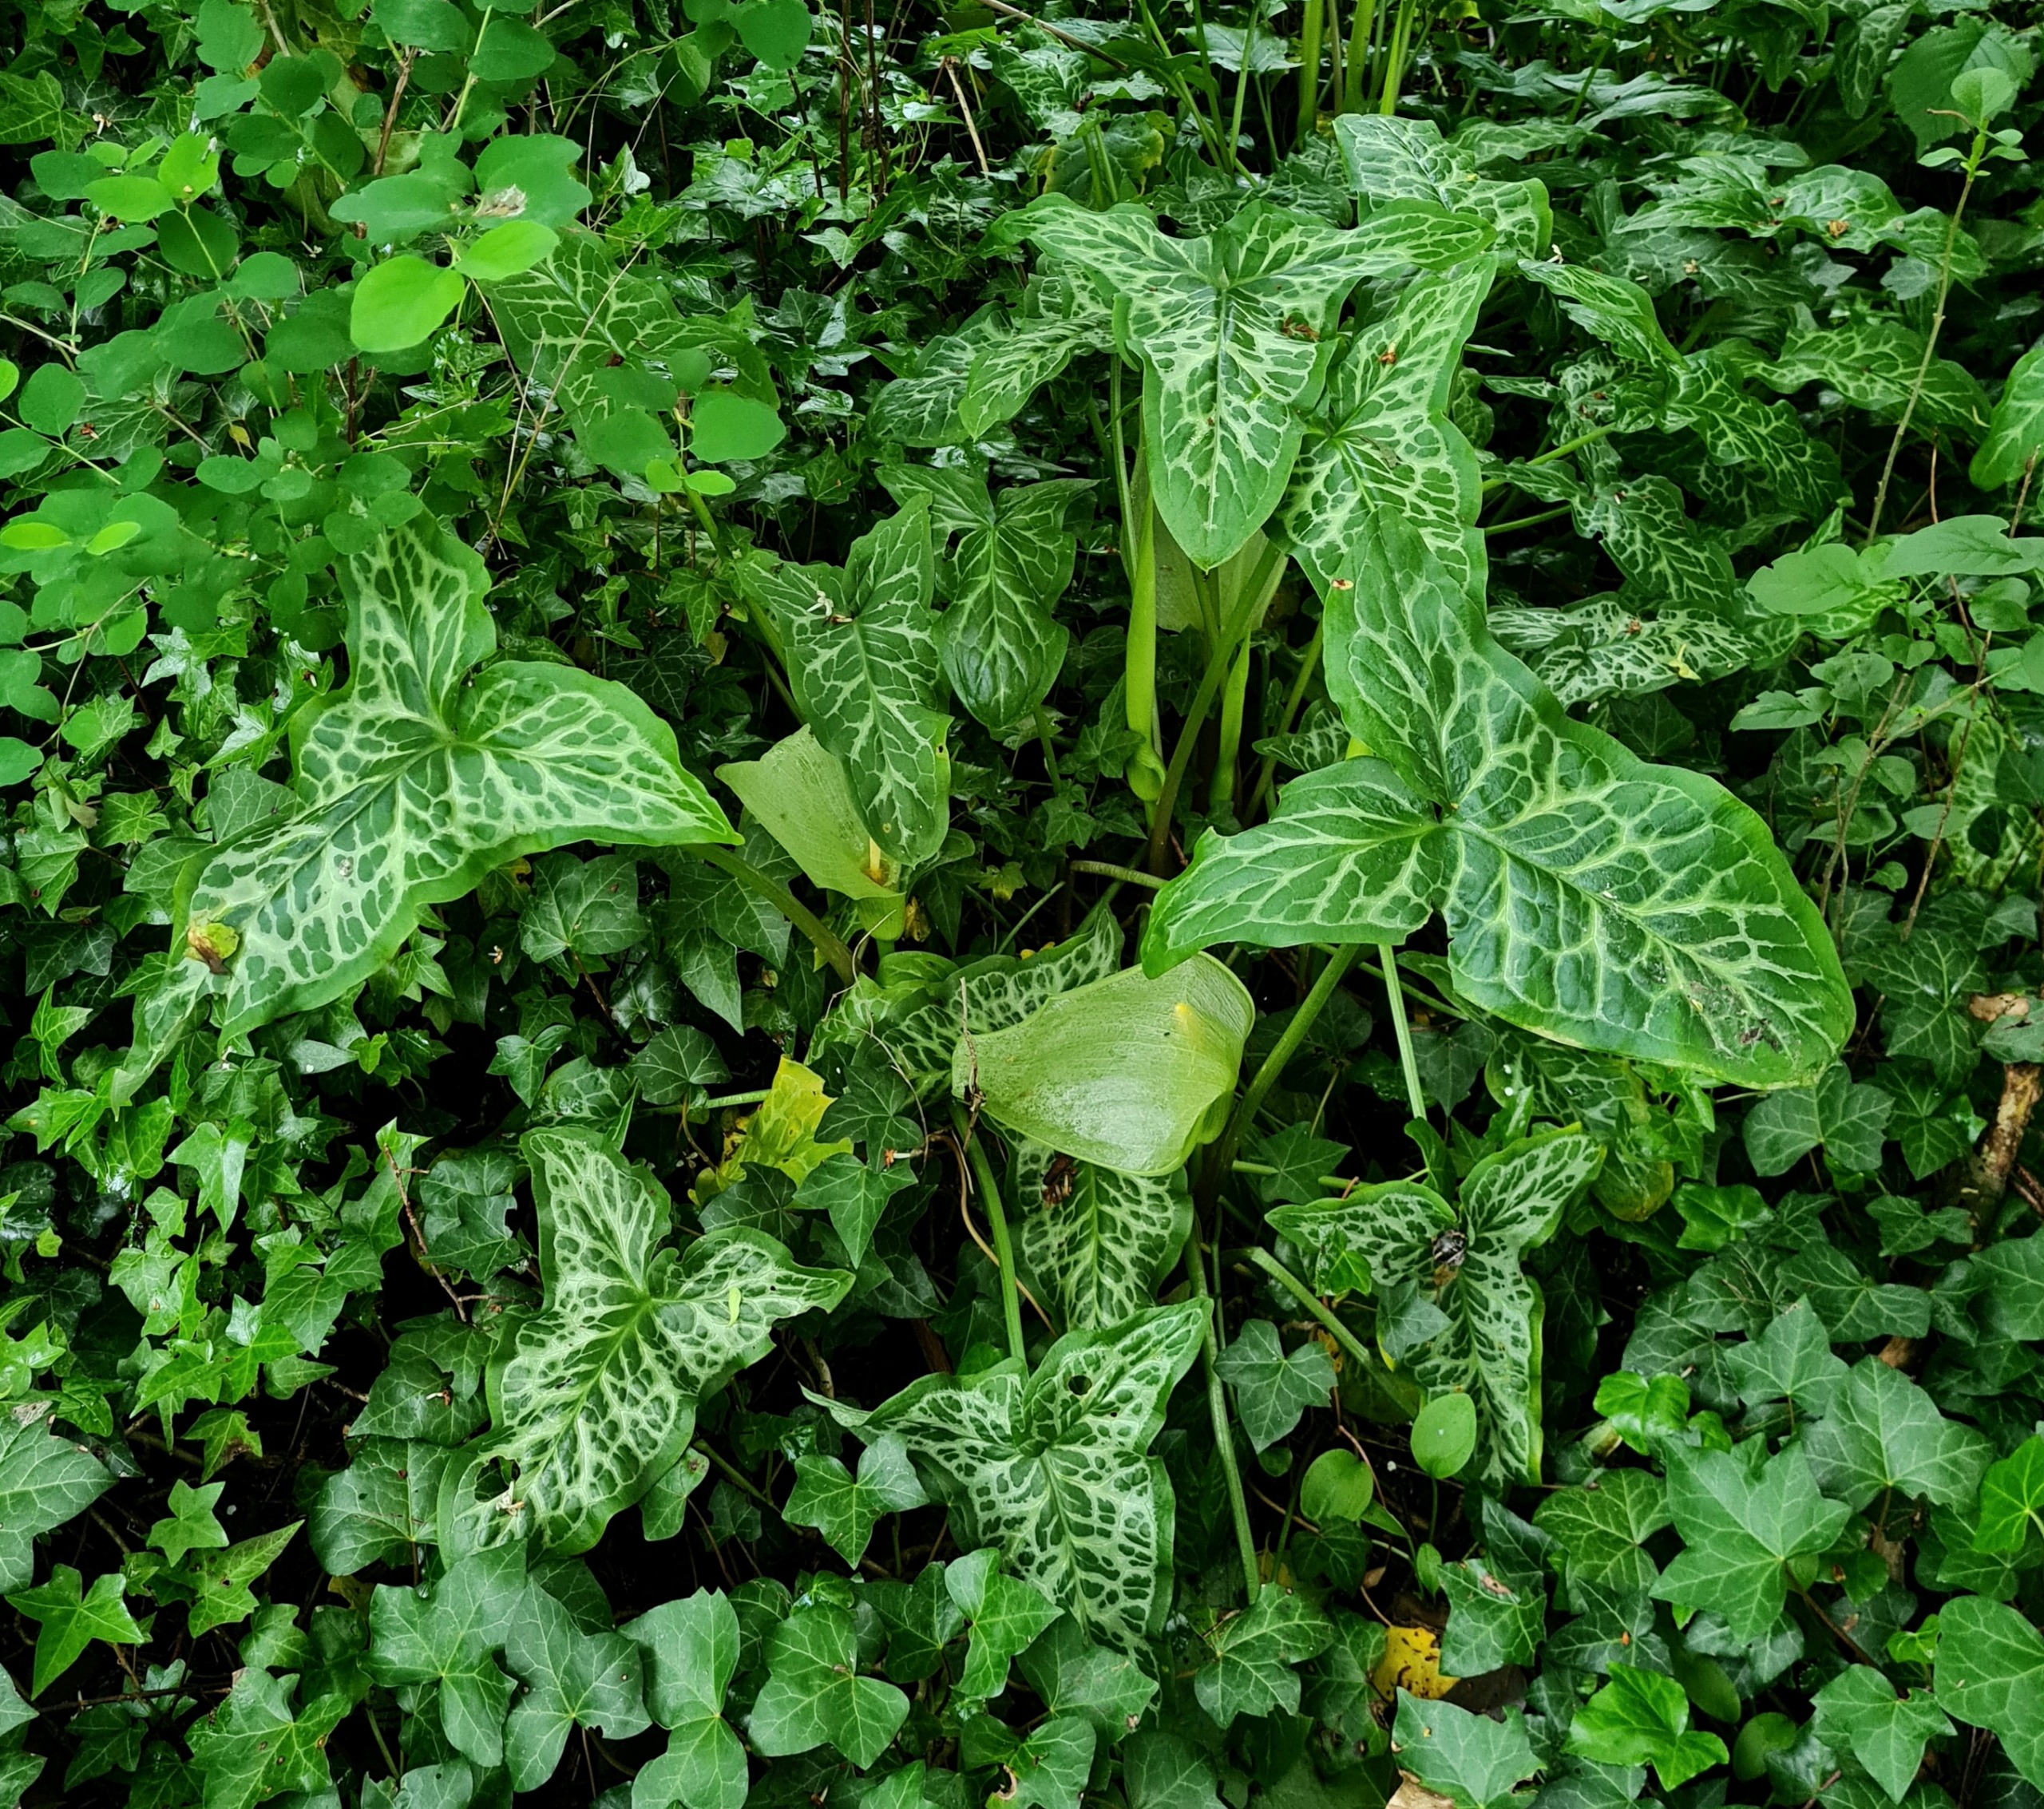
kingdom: Plantae
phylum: Tracheophyta
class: Liliopsida
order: Alismatales
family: Araceae
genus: Arum
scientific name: Arum italicum
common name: Italiensk arum
